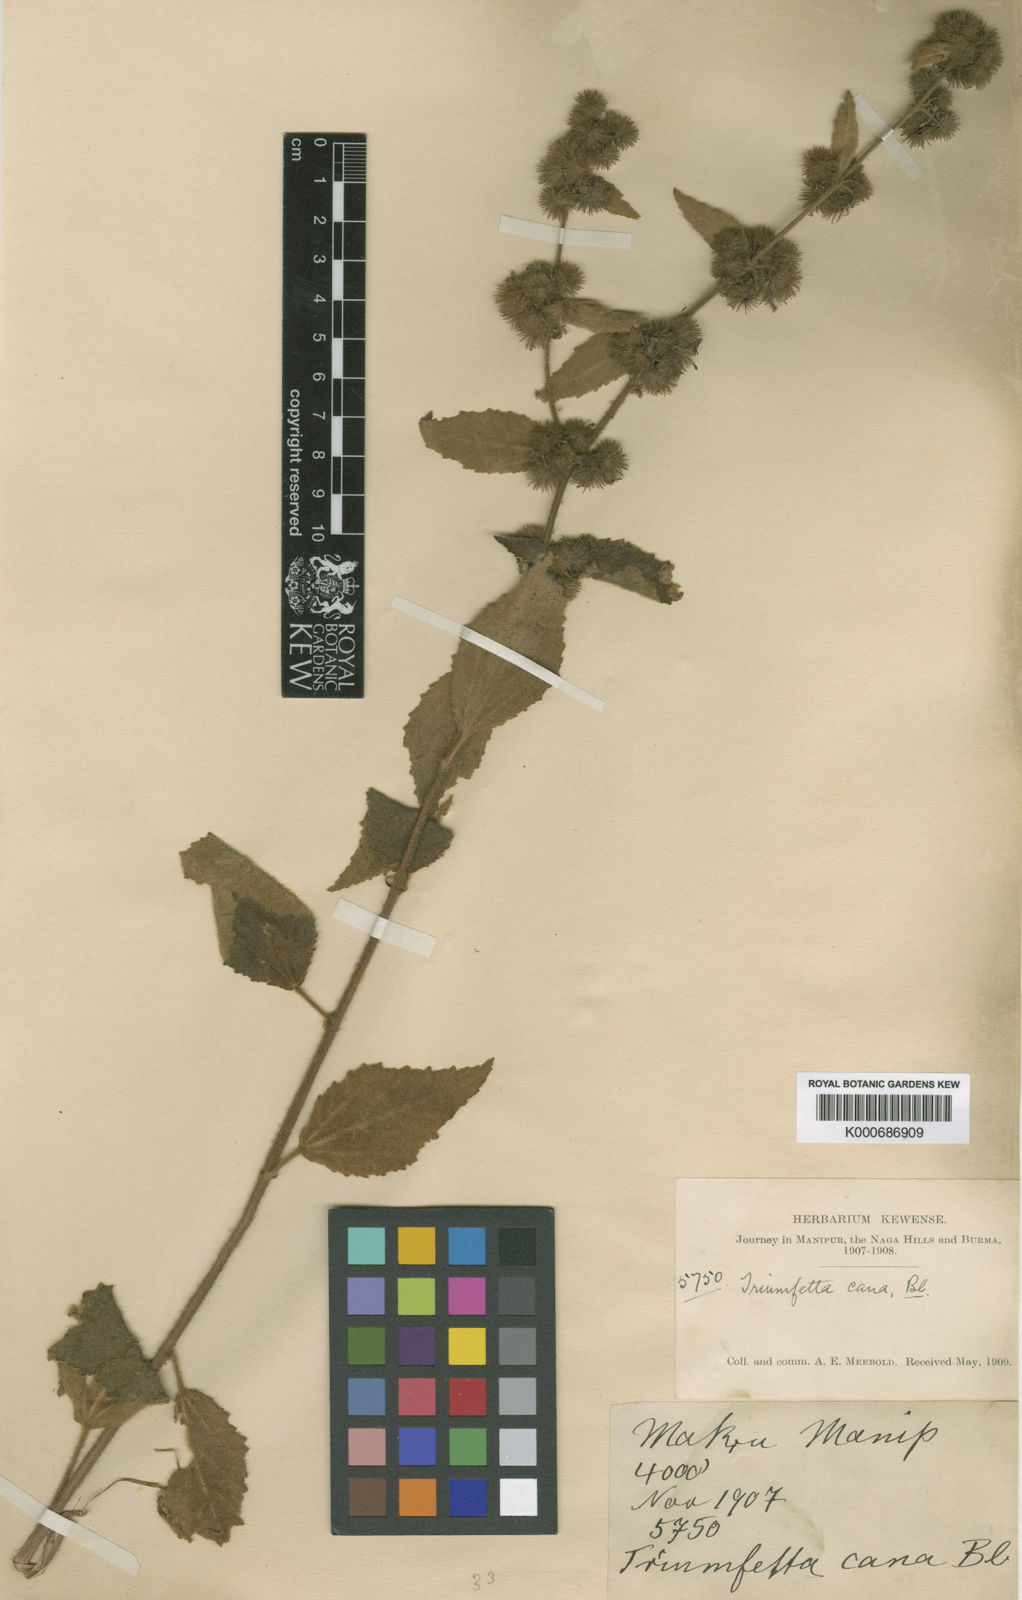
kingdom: Plantae
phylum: Tracheophyta
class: Magnoliopsida
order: Malvales
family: Malvaceae
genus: Triumfetta
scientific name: Triumfetta obliqua
